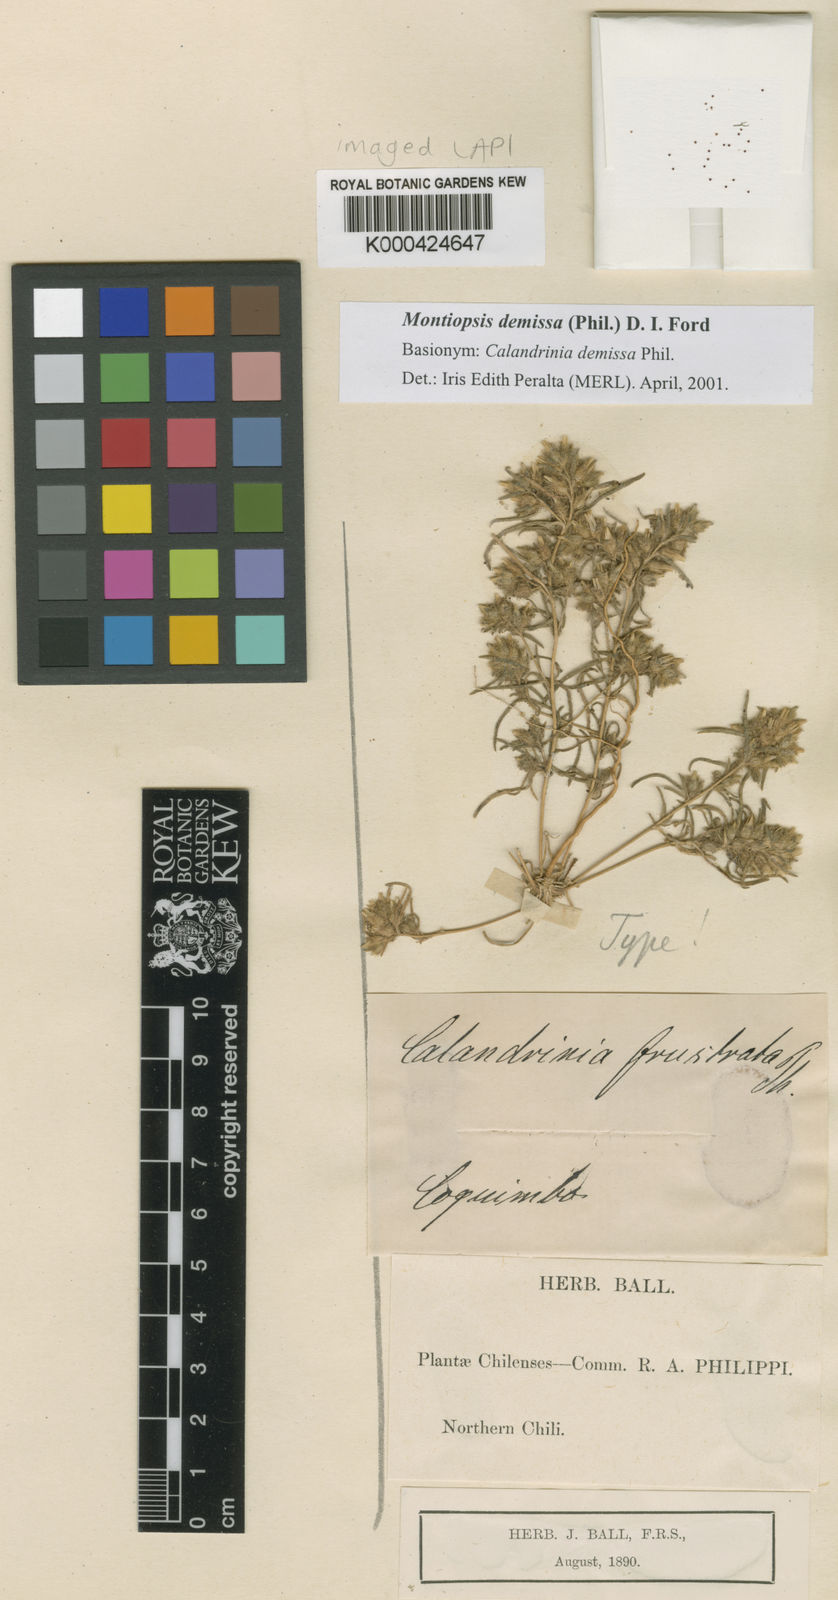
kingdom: Plantae
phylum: Tracheophyta
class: Magnoliopsida
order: Caryophyllales
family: Montiaceae
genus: Montiopsis
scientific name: Montiopsis capitata
